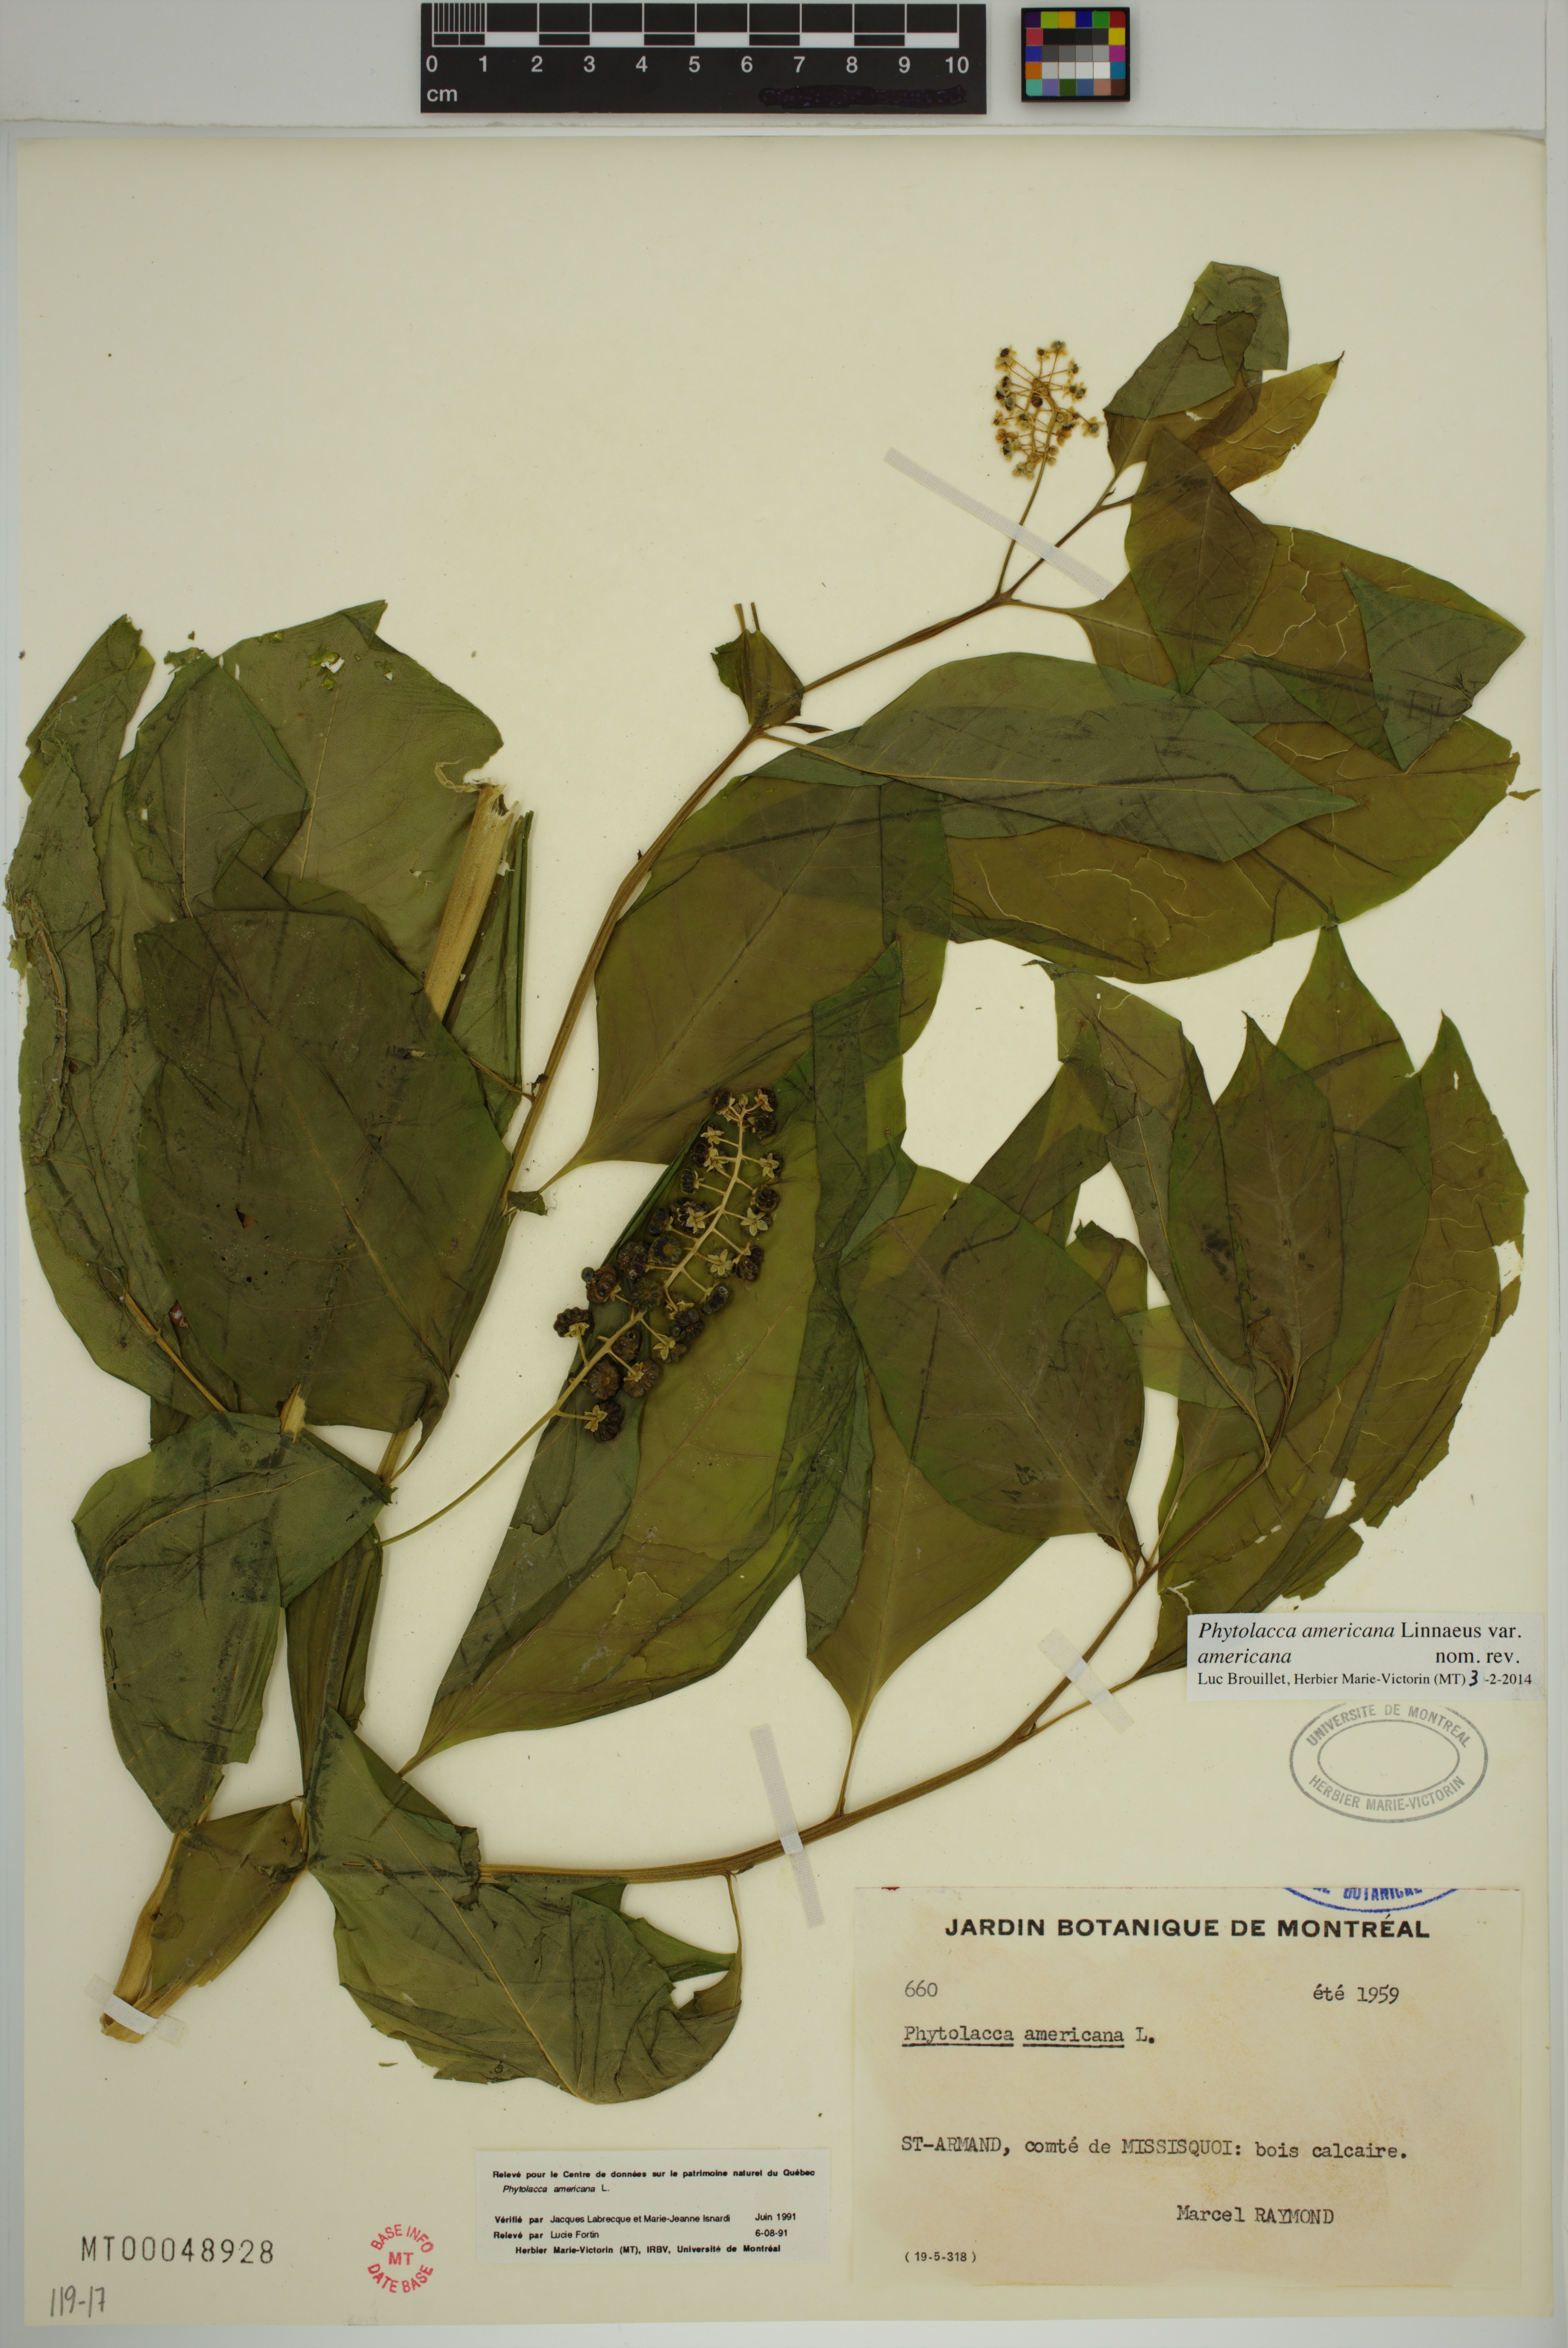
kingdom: Plantae
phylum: Tracheophyta
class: Magnoliopsida
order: Caryophyllales
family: Phytolaccaceae
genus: Phytolacca
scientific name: Phytolacca americana
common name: American pokeweed
